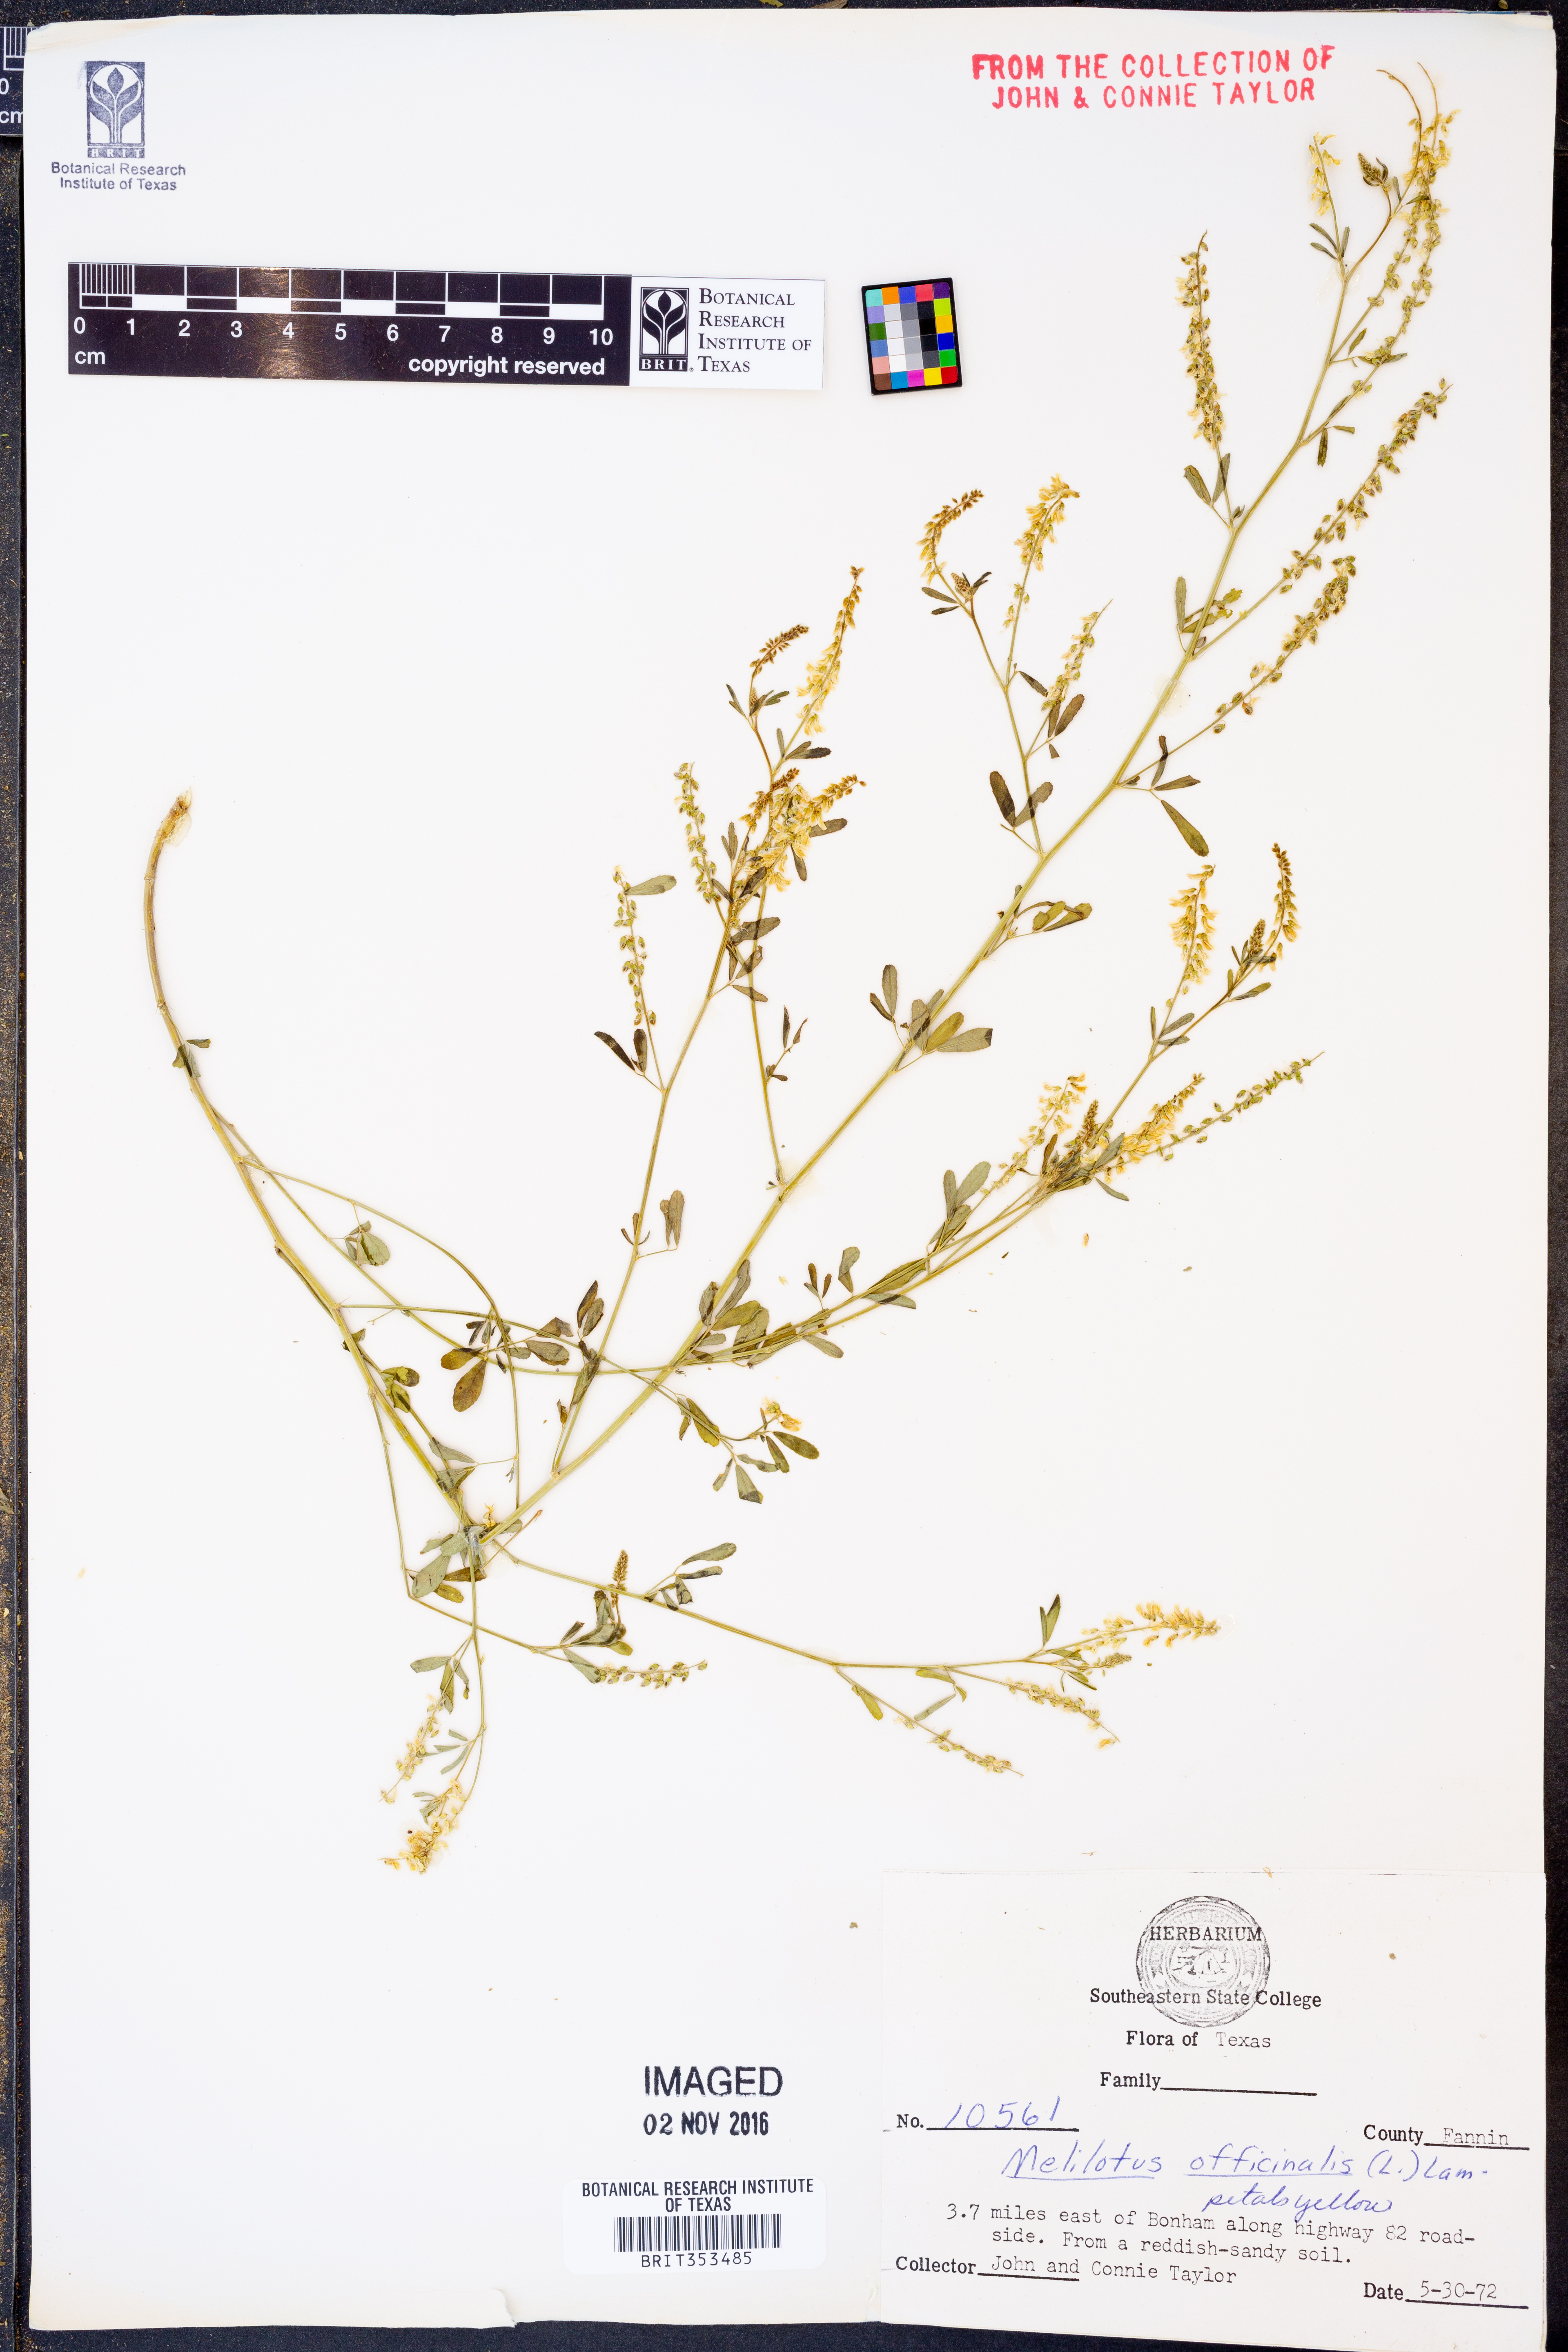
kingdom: Plantae
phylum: Tracheophyta
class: Magnoliopsida
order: Fabales
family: Fabaceae
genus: Melilotus
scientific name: Melilotus officinalis
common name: Sweetclover
